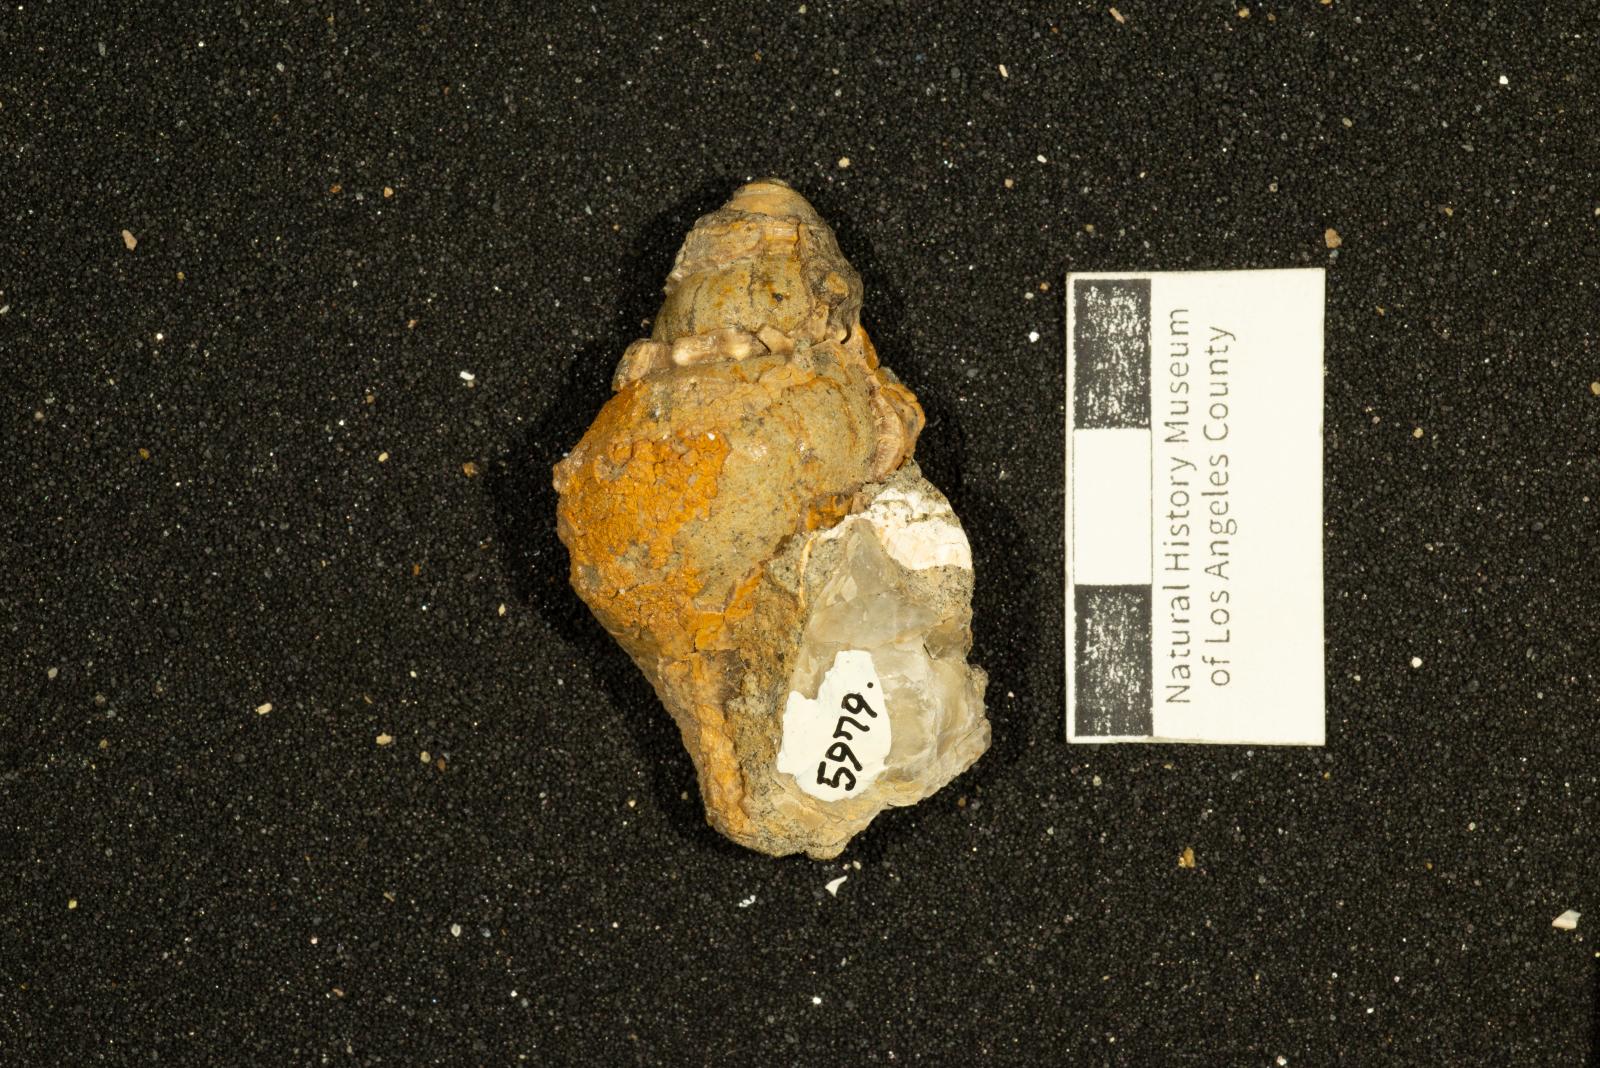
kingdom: Animalia
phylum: Mollusca
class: Gastropoda
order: Neogastropoda
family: Perissityidae
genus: Murphitys
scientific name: Murphitys madonna
